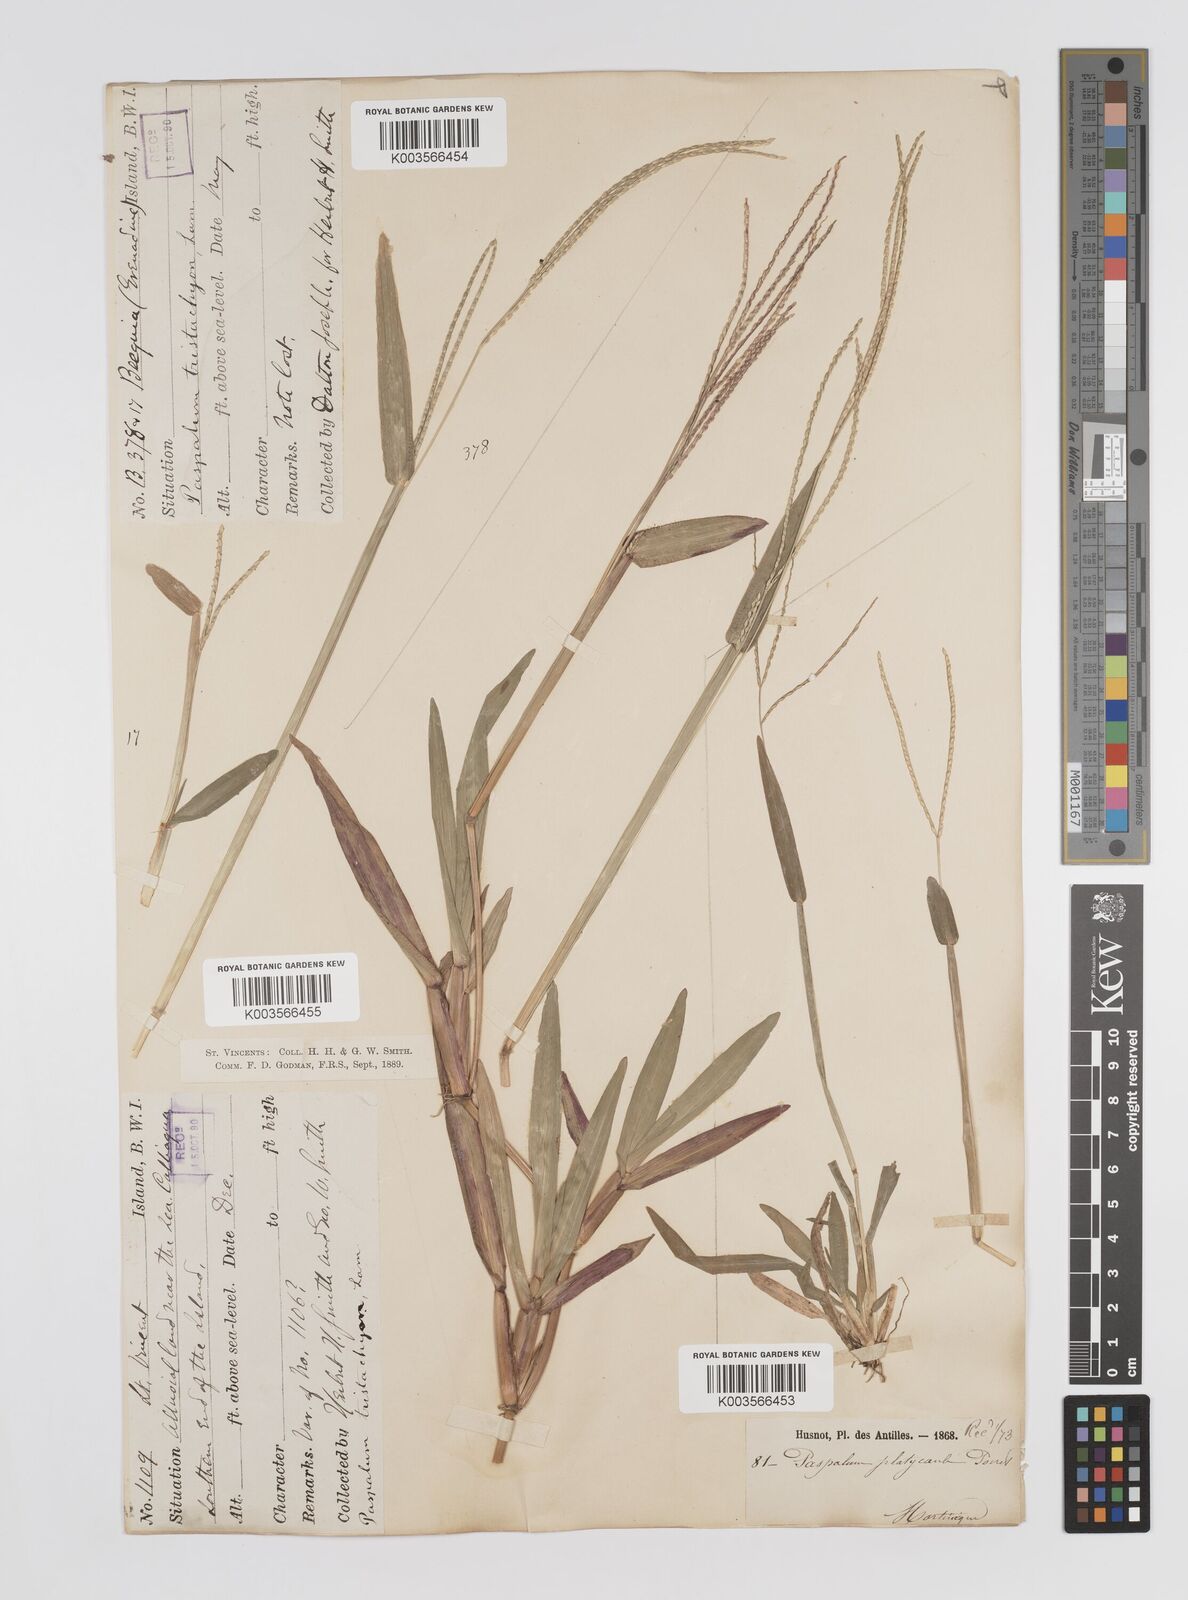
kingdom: Plantae
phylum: Tracheophyta
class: Liliopsida
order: Poales
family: Poaceae
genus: Axonopus
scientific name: Axonopus compressus
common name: American carpet grass
